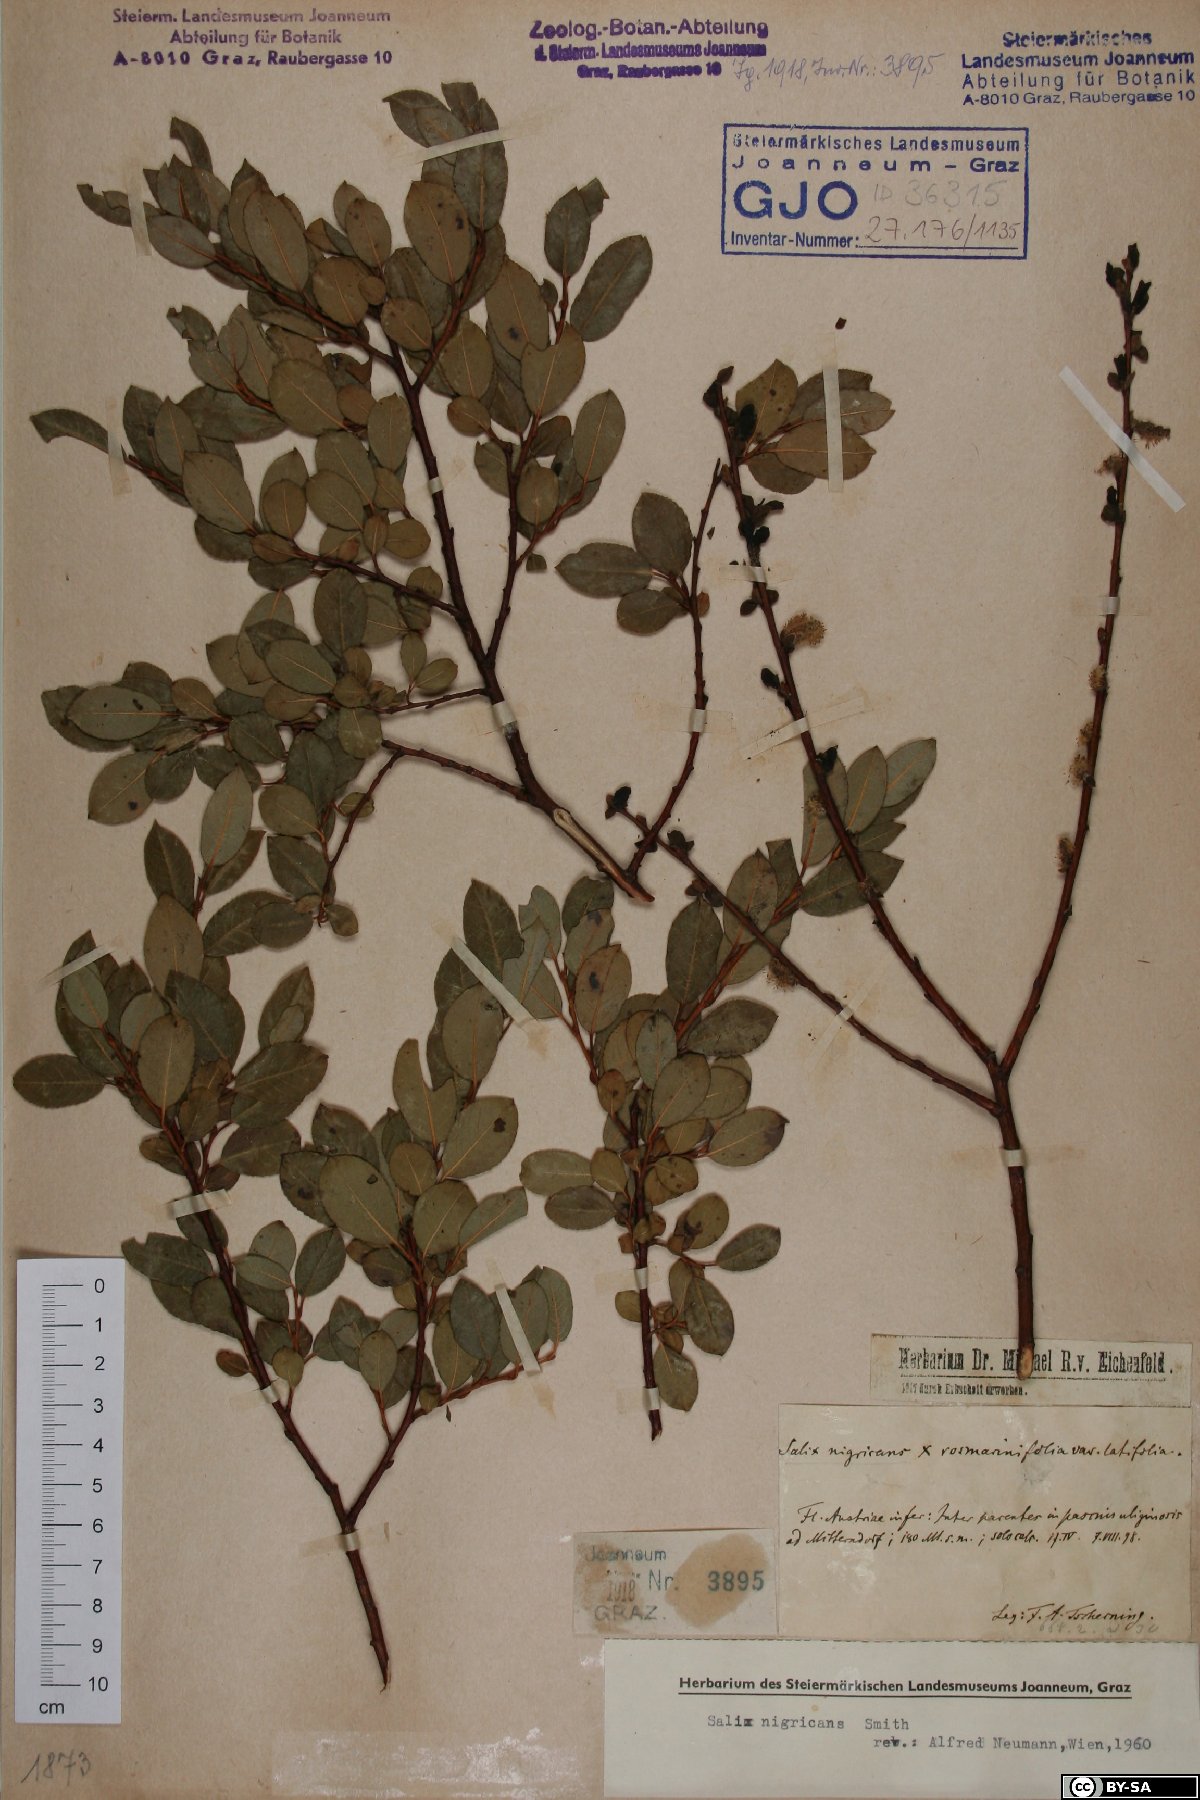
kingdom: Plantae
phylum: Tracheophyta
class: Magnoliopsida
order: Malpighiales
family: Salicaceae
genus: Salix
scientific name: Salix myrsinifolia
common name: Dark-leaved willow
